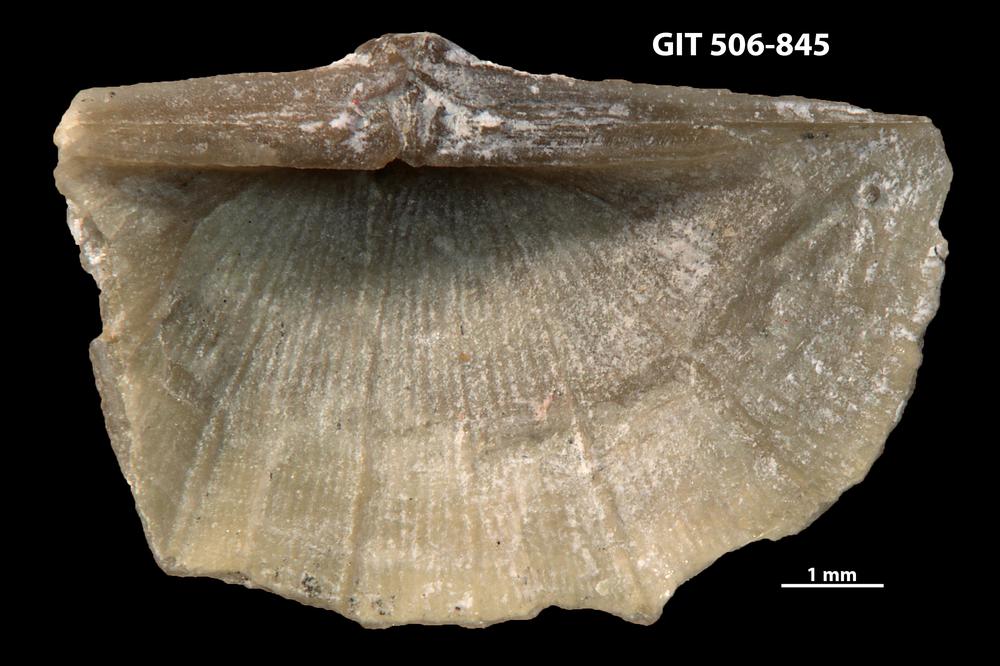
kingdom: Animalia
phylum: Brachiopoda
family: Oldhaminidae
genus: Eoplectodonta
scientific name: Eoplectodonta exceptionis
